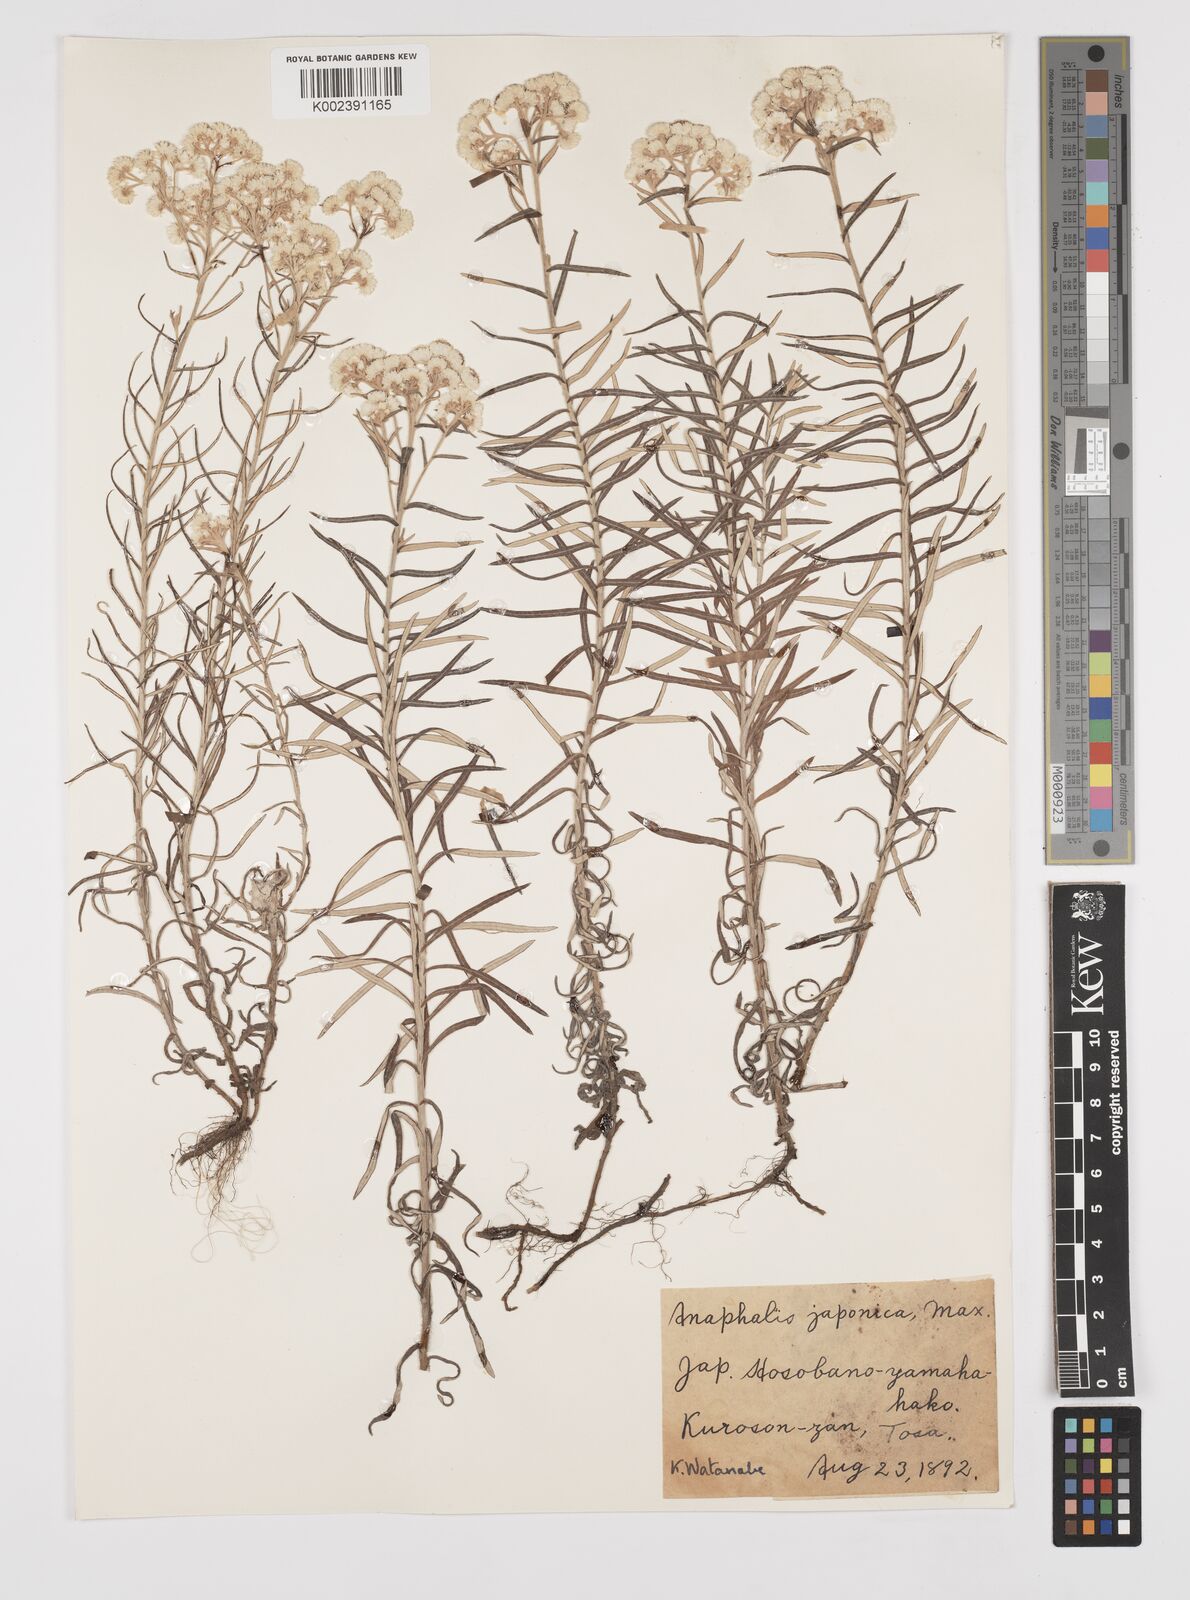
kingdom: Plantae
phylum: Tracheophyta
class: Magnoliopsida
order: Asterales
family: Asteraceae
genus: Anaphalis
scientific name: Anaphalis margaritacea
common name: Pearly everlasting
